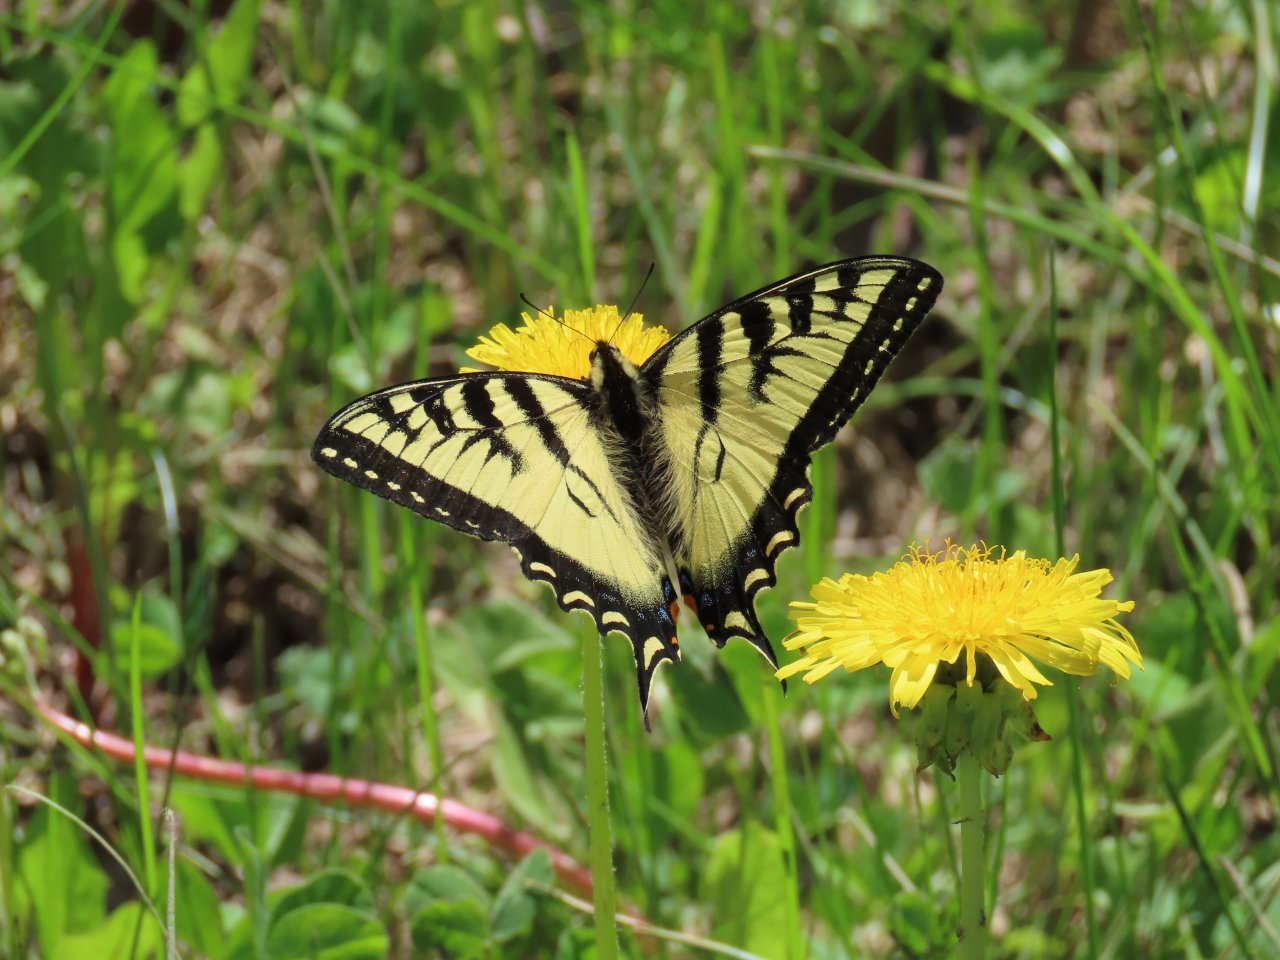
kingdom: Animalia
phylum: Arthropoda
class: Insecta
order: Lepidoptera
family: Papilionidae
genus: Pterourus
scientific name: Pterourus canadensis
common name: Canadian Tiger Swallowtail
